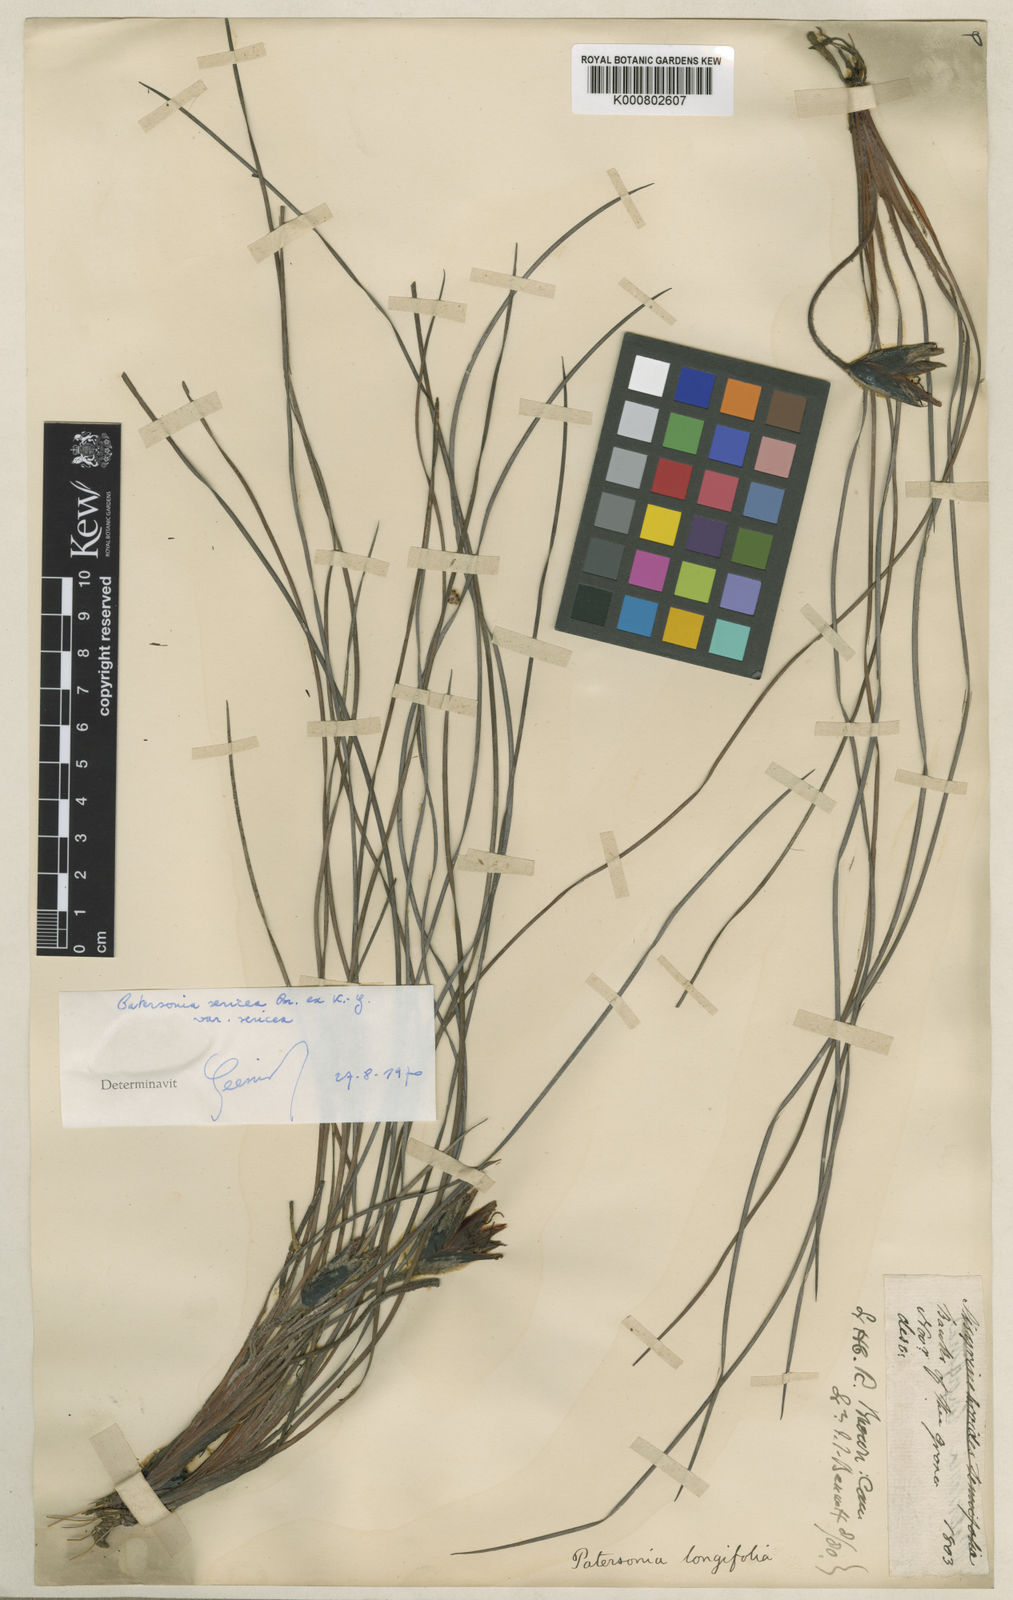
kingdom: Plantae
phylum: Tracheophyta
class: Liliopsida
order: Asparagales
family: Iridaceae
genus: Patersonia
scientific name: Patersonia sericea
